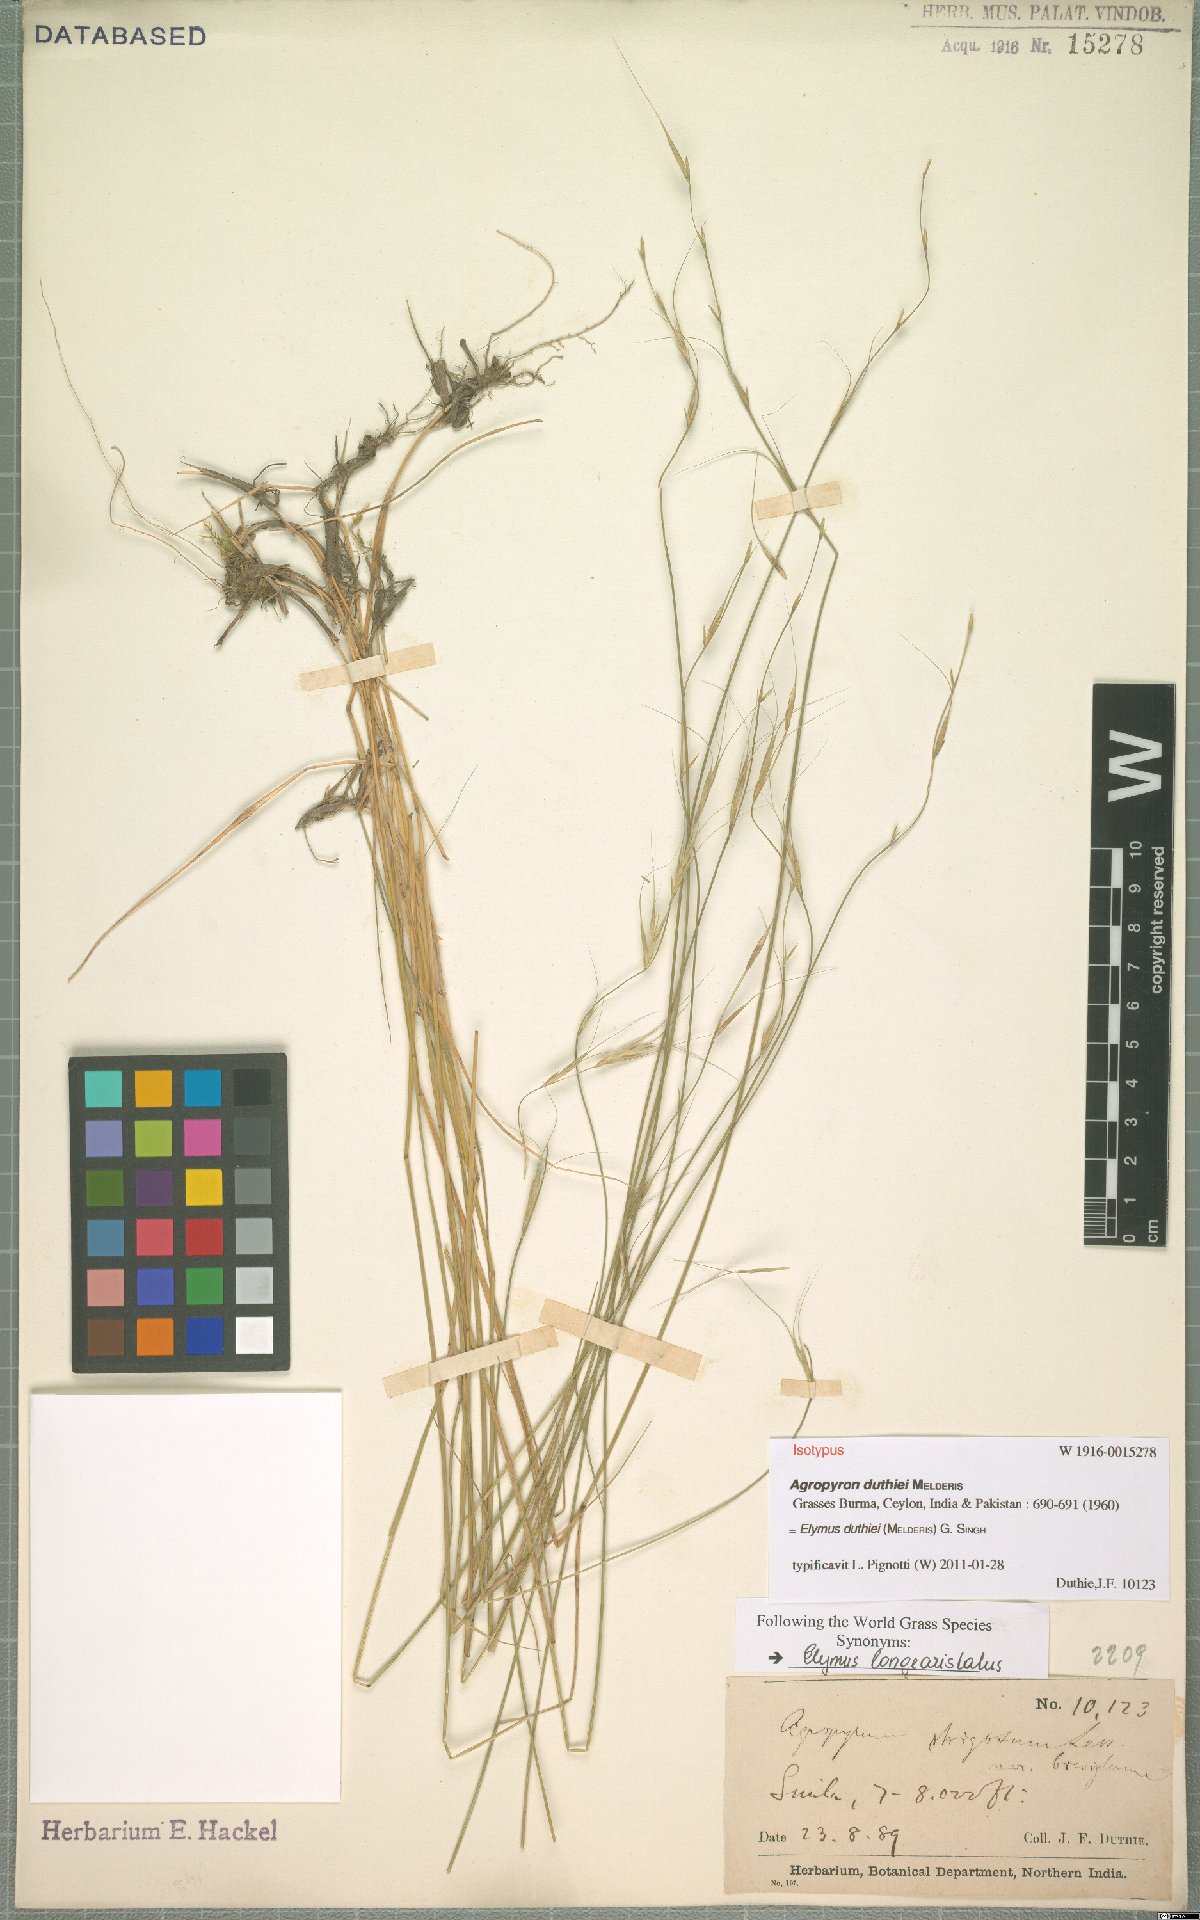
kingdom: Plantae
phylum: Tracheophyta
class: Liliopsida
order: Poales
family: Poaceae
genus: Elymus
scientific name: Elymus duthiei
